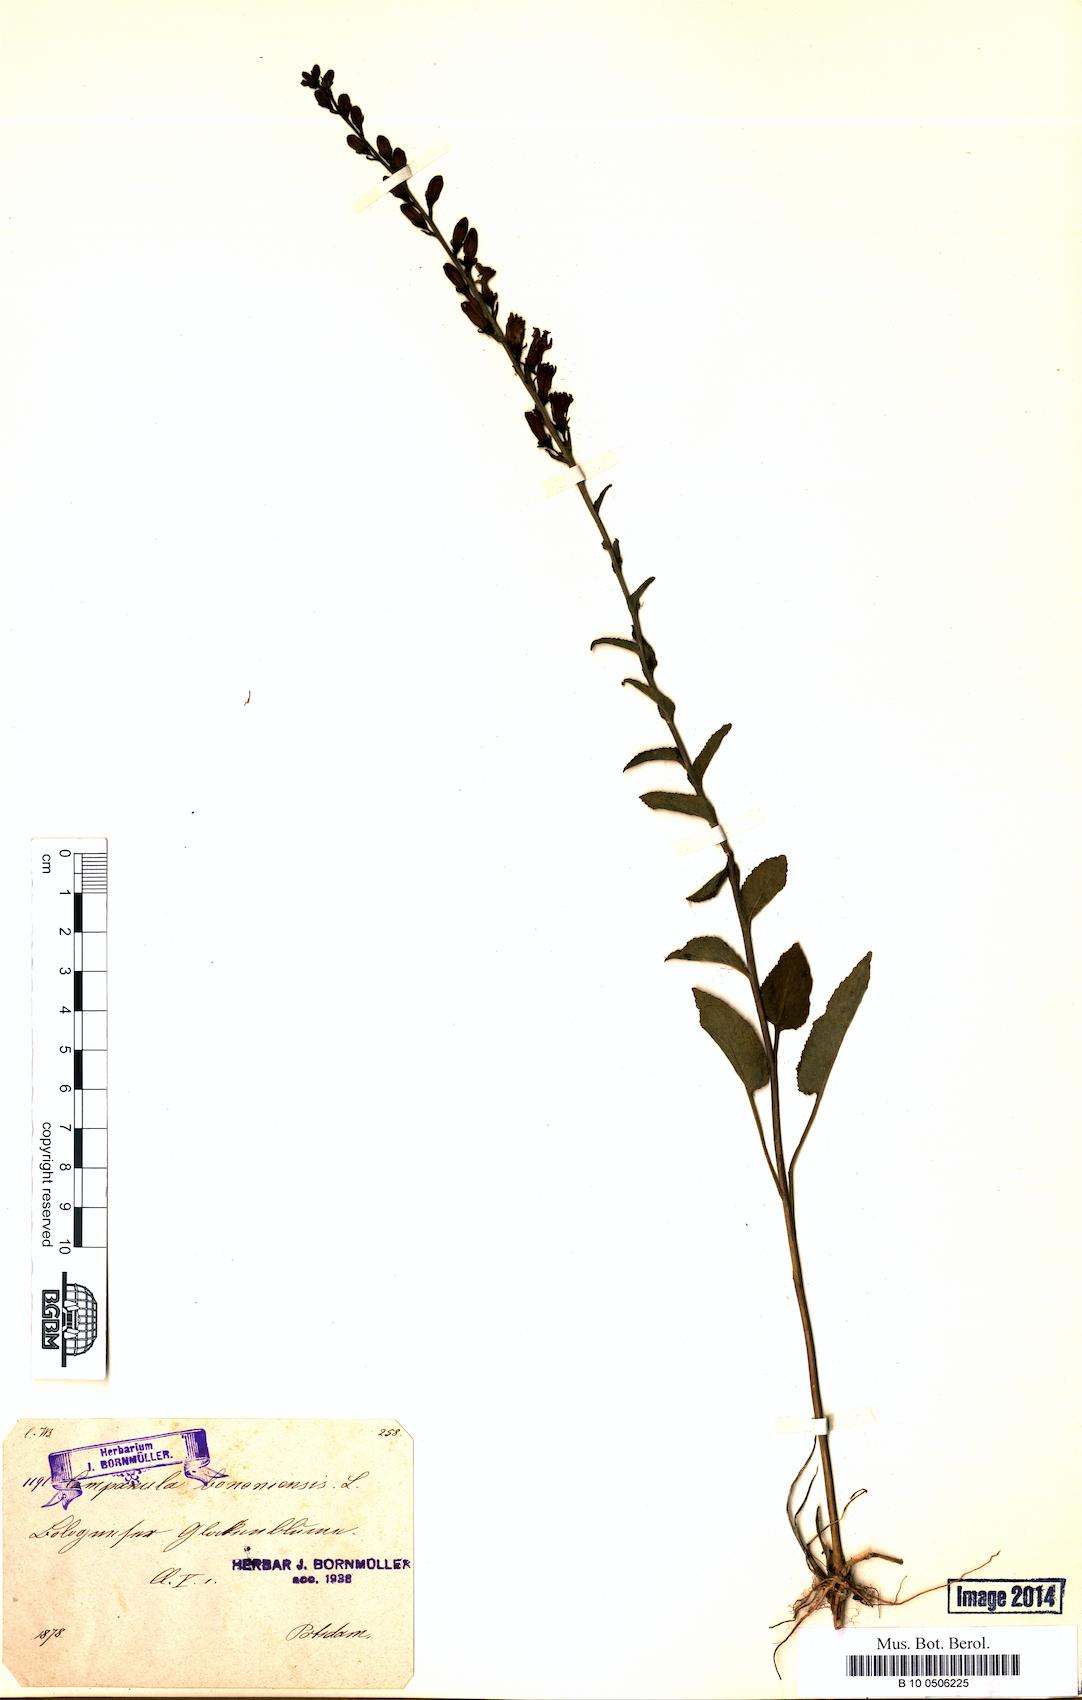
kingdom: Plantae
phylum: Tracheophyta
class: Magnoliopsida
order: Asterales
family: Campanulaceae
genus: Campanula
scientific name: Campanula bononiensis
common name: Pale bellflower
